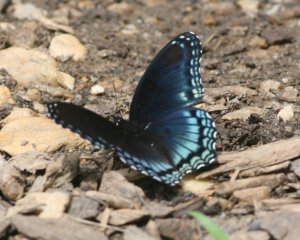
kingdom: Animalia
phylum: Arthropoda
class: Insecta
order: Lepidoptera
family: Nymphalidae
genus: Limenitis
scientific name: Limenitis astyanax
